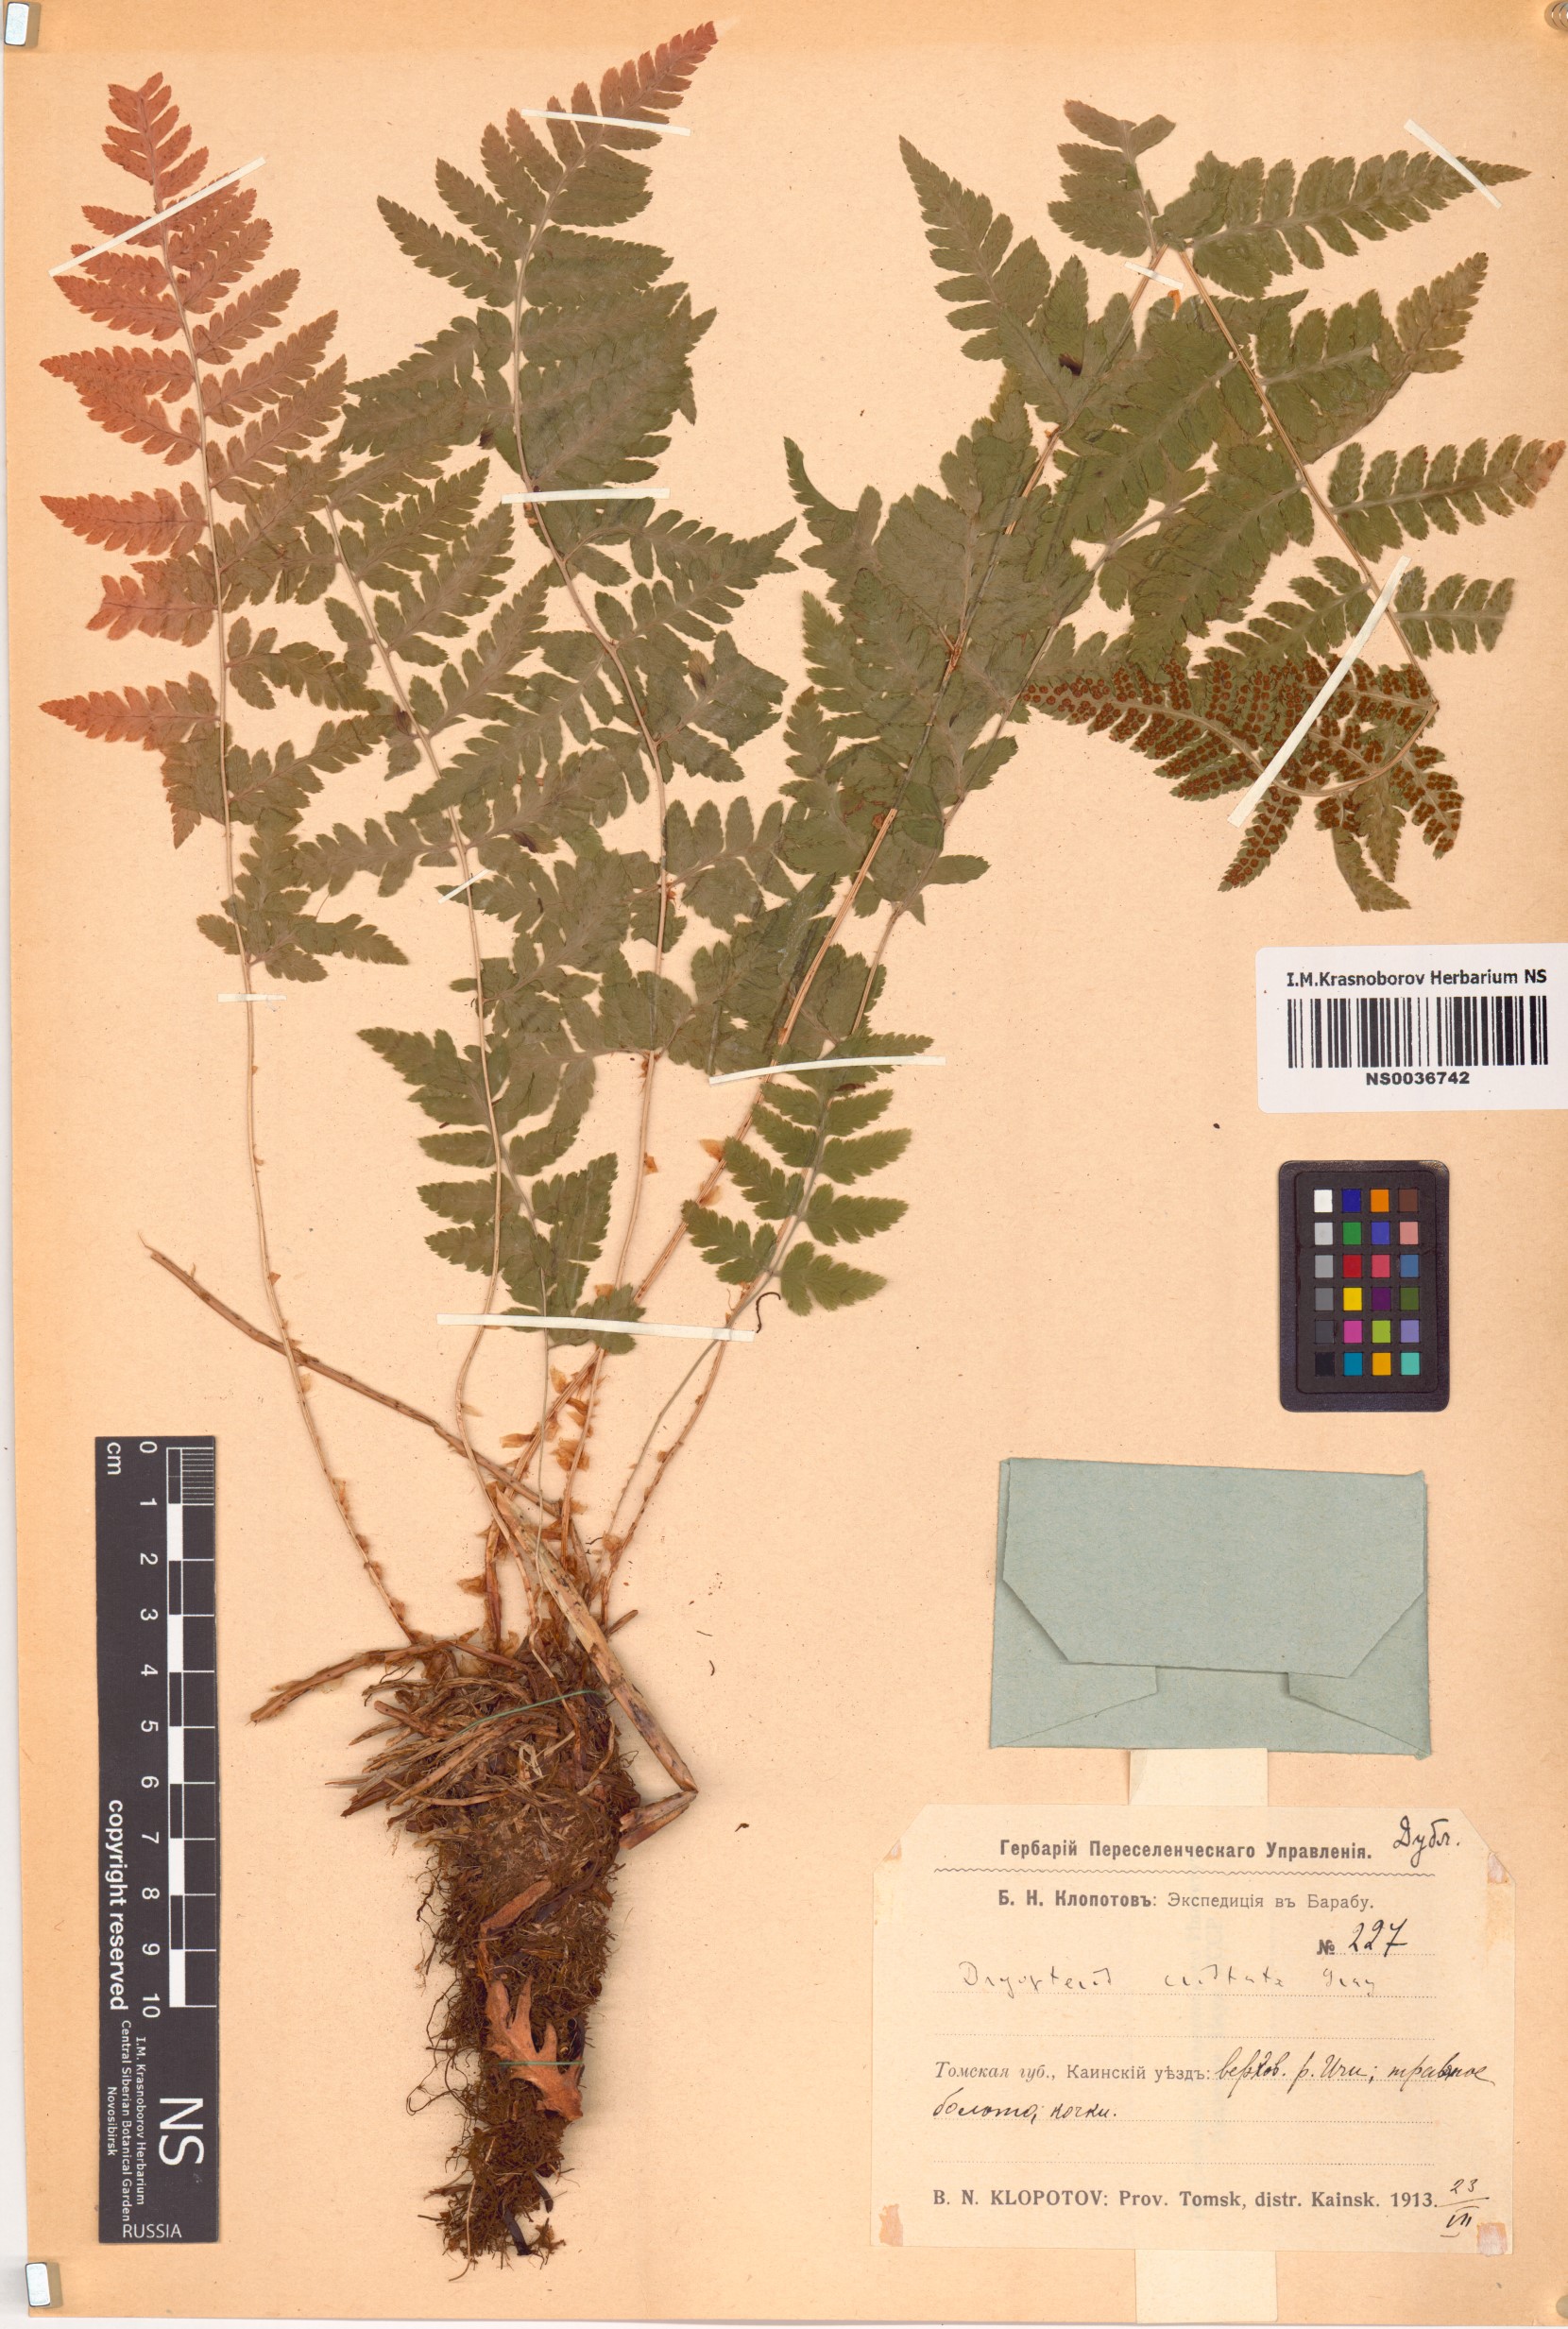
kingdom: Plantae
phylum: Tracheophyta
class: Polypodiopsida
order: Polypodiales
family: Dryopteridaceae
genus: Dryopteris
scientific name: Dryopteris cristata
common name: Crested wood fern
